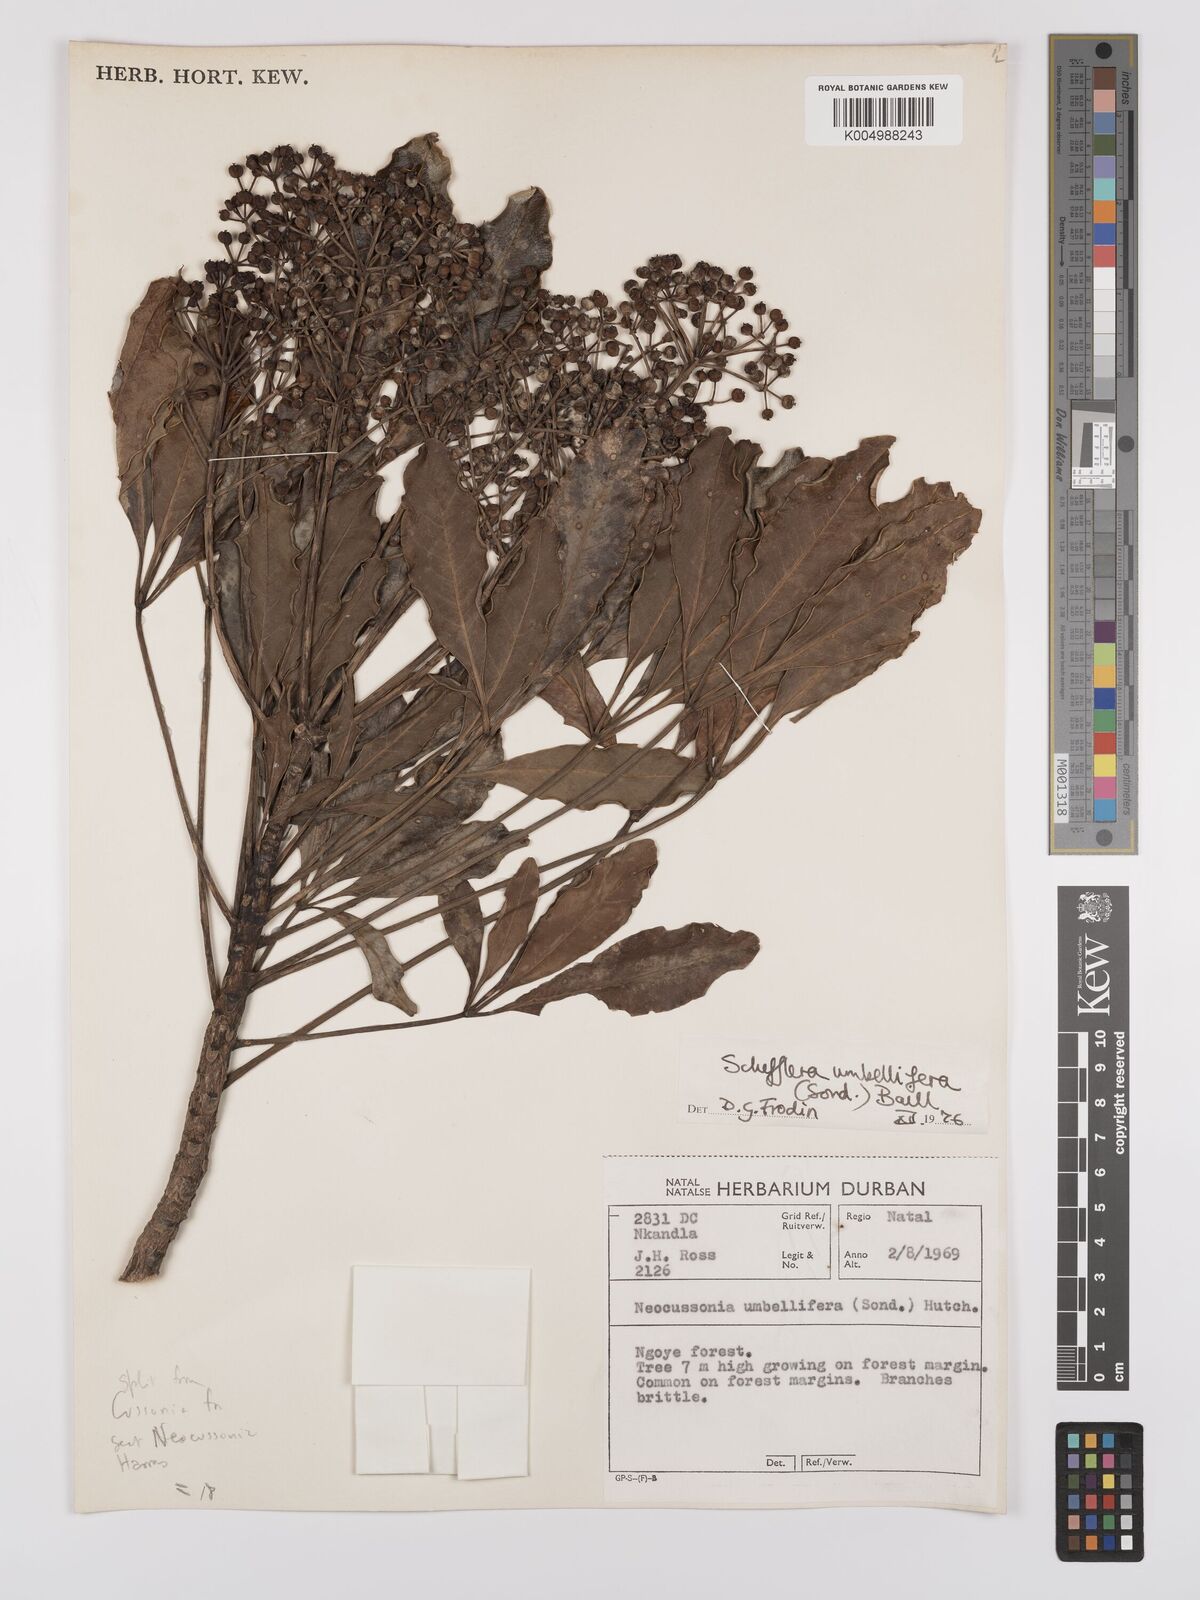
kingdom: Plantae
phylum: Tracheophyta
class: Magnoliopsida
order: Apiales
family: Araliaceae
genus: Neocussonia
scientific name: Neocussonia umbellifera
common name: False cabbage tree
